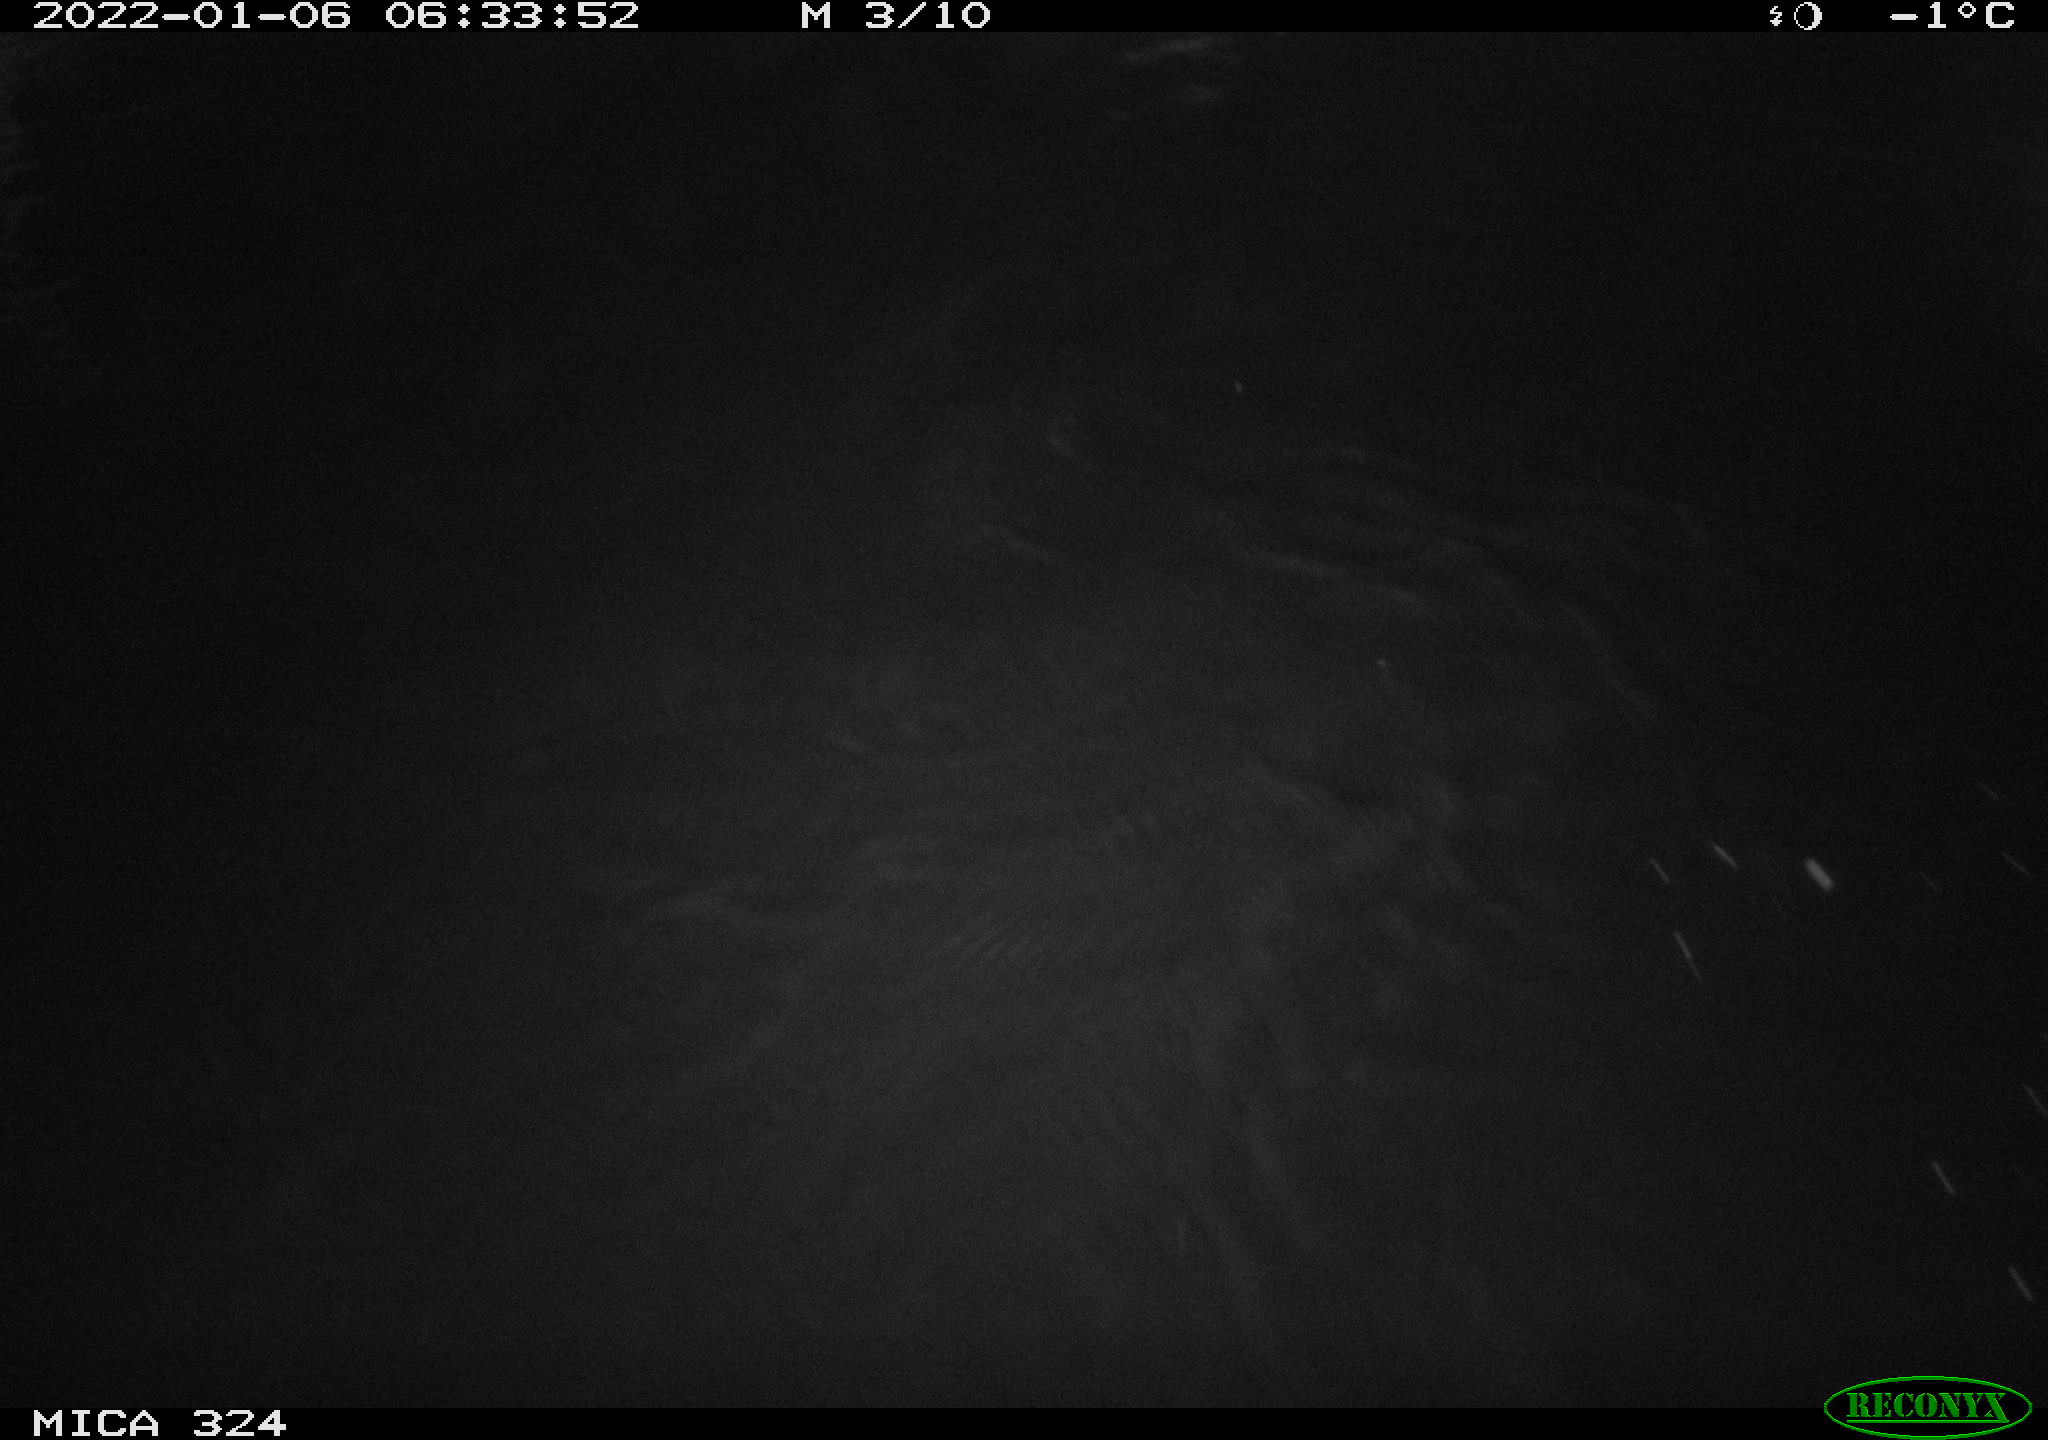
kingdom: Animalia
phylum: Chordata
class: Mammalia
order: Rodentia
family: Cricetidae
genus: Ondatra
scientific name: Ondatra zibethicus
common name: Muskrat
